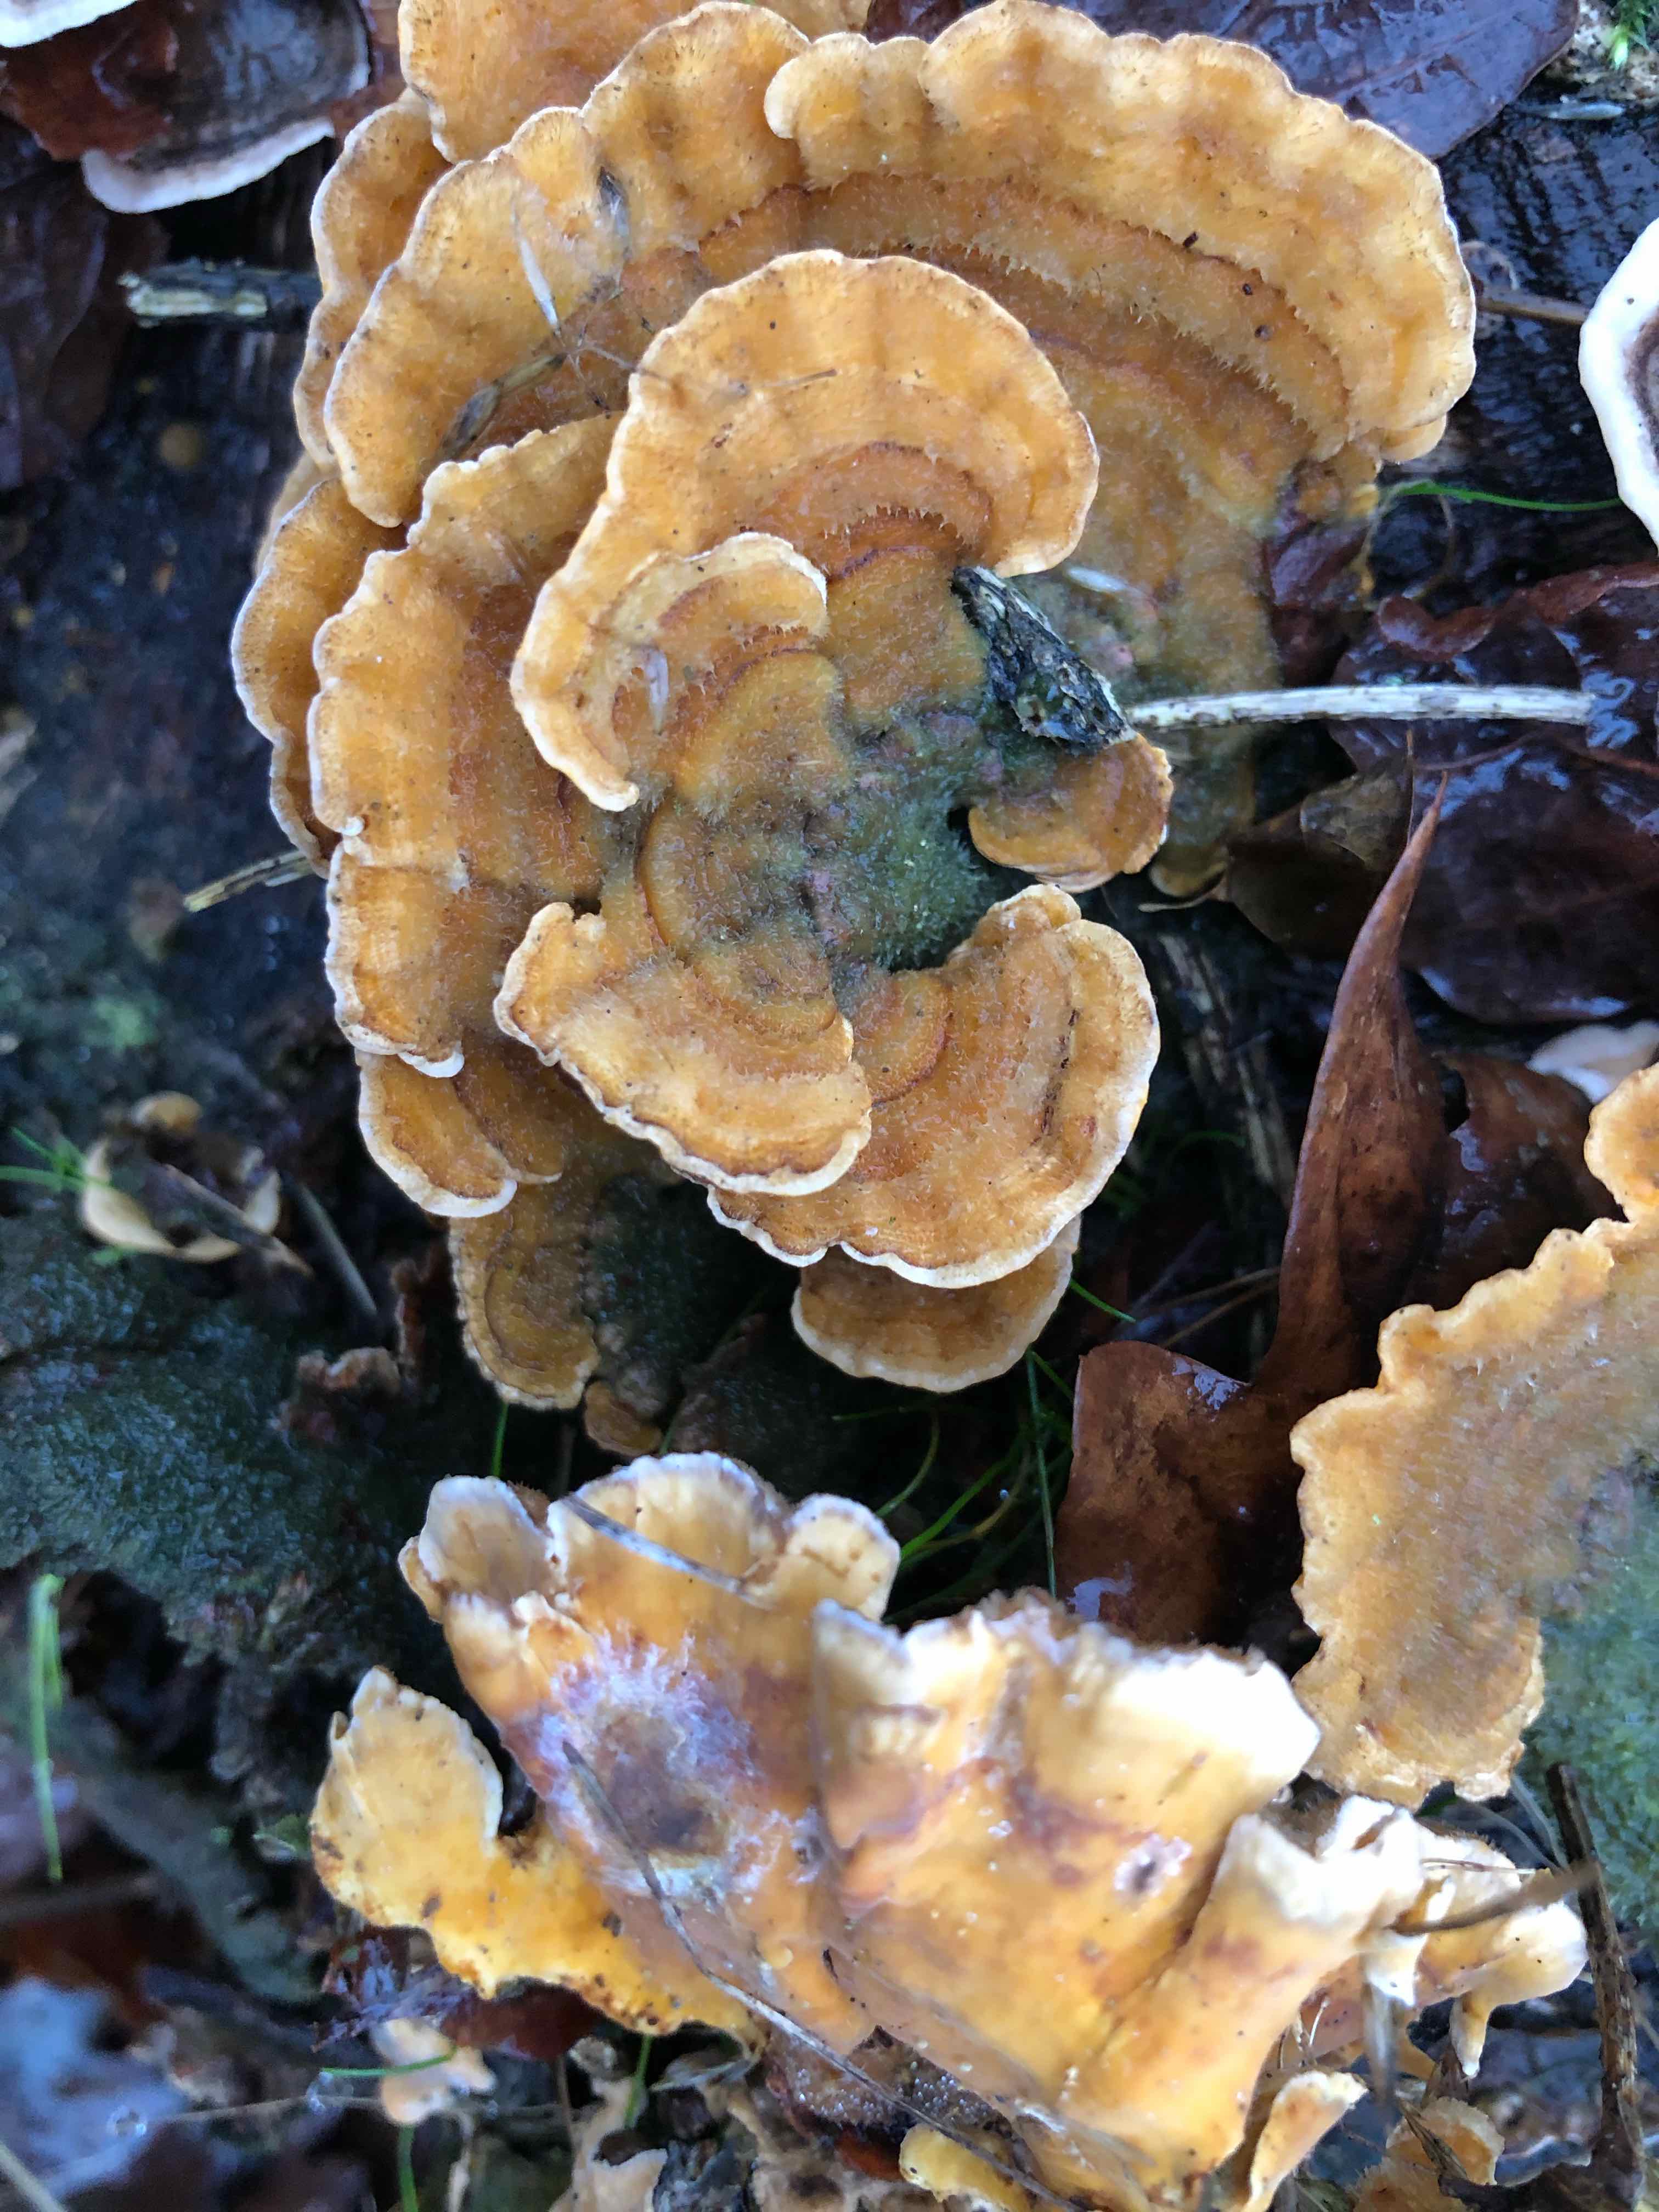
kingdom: Fungi
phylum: Basidiomycota
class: Agaricomycetes
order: Russulales
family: Stereaceae
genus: Stereum
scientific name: Stereum hirsutum
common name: håret lædersvamp
